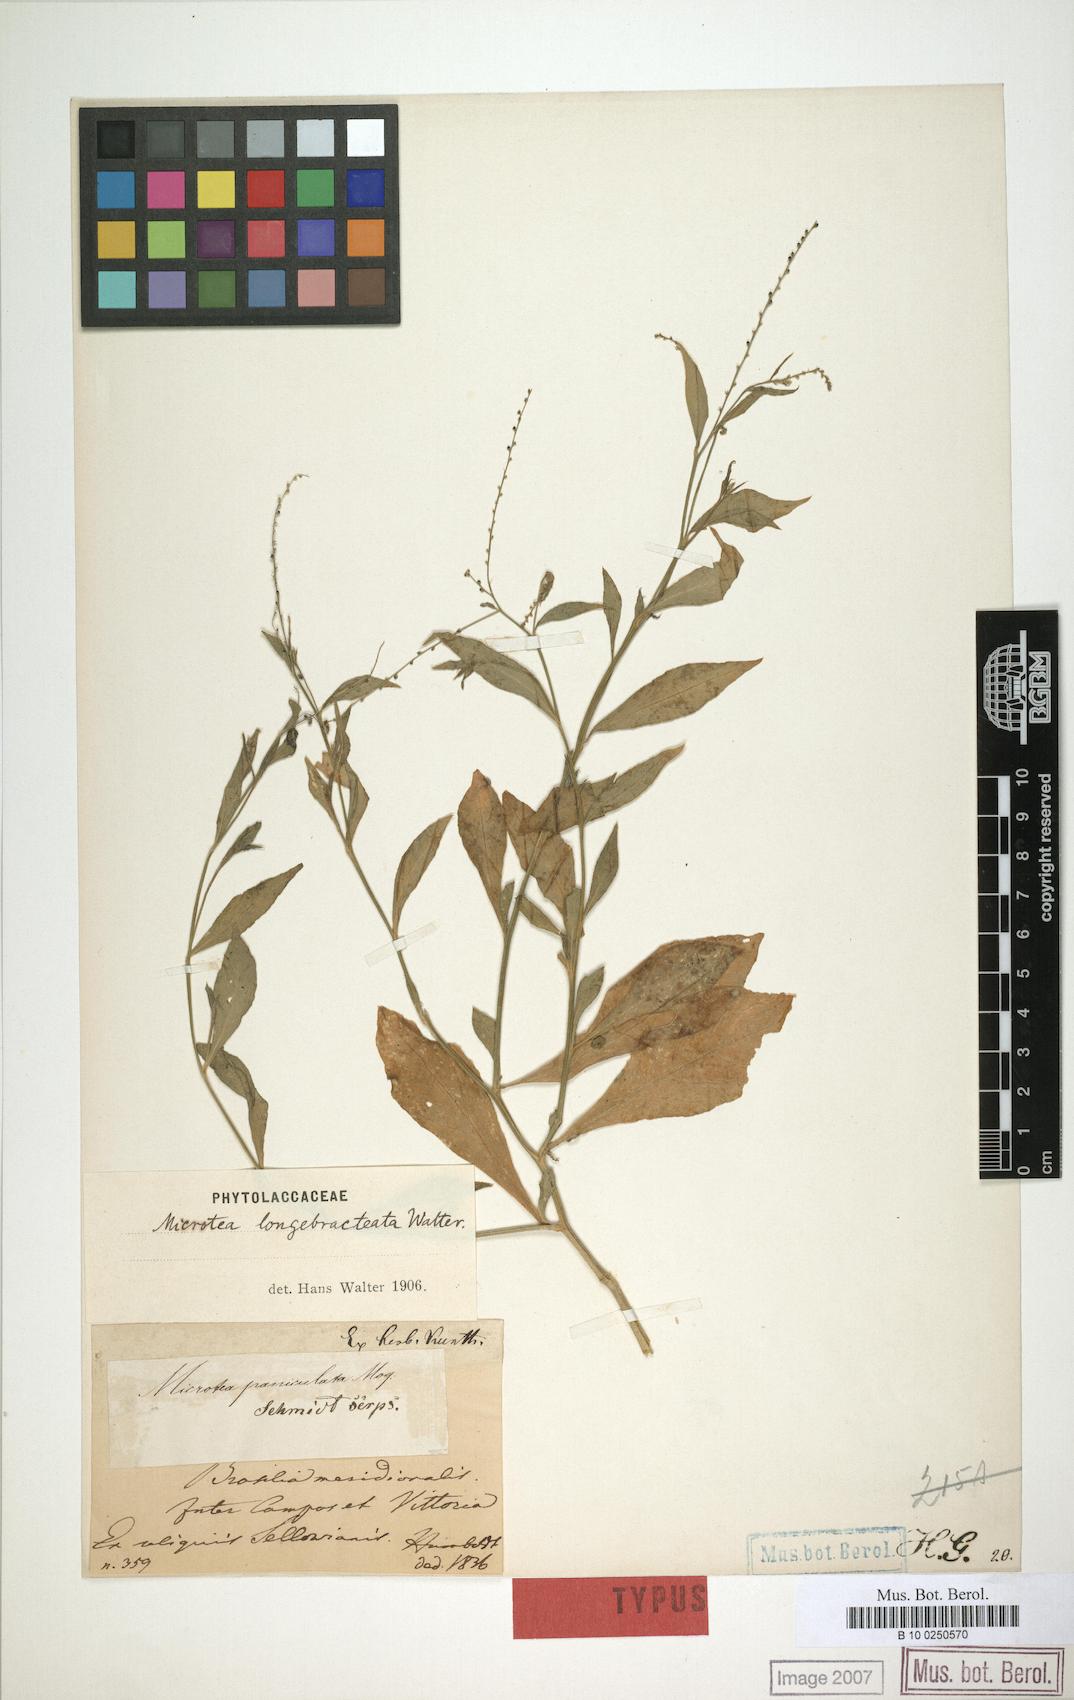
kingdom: Plantae
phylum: Tracheophyta
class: Magnoliopsida
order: Caryophyllales
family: Microteaceae
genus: Microtea
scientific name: Microtea celosioides
